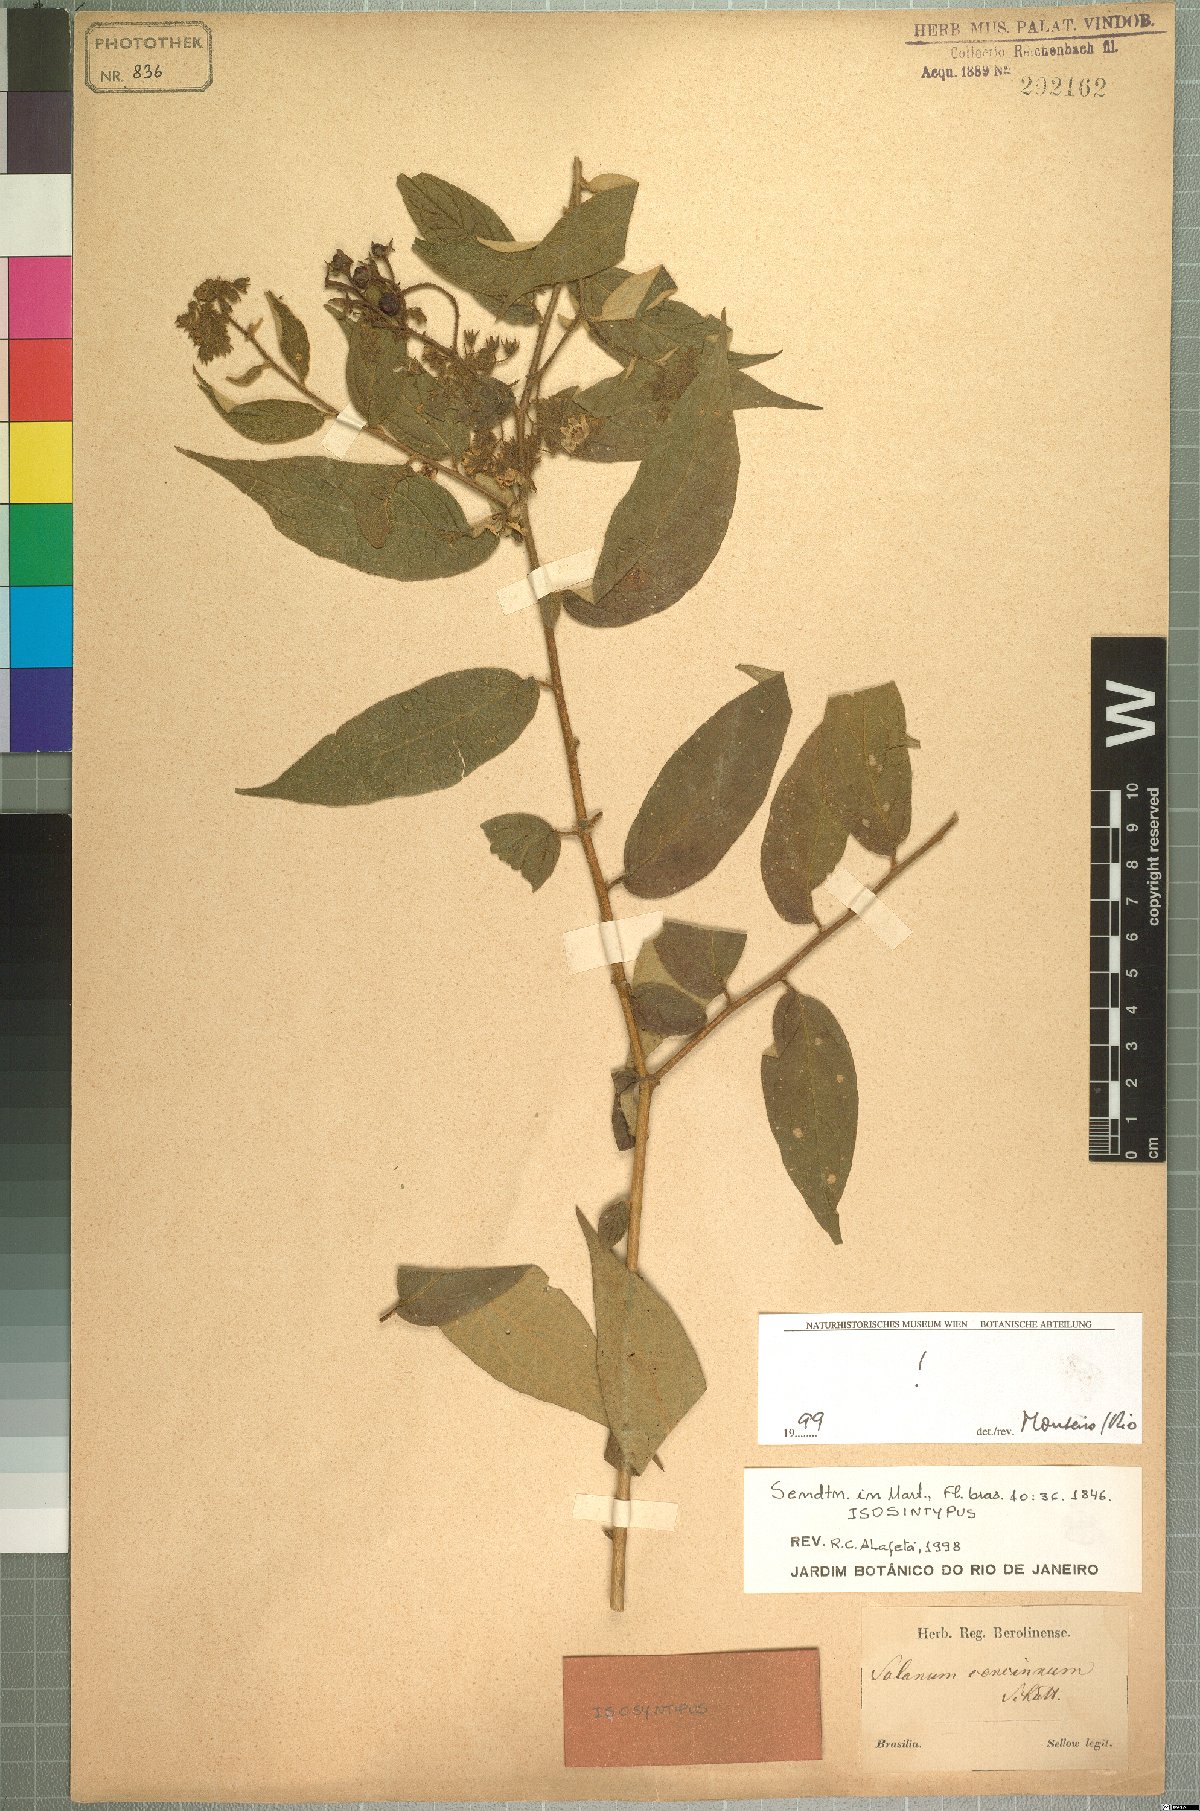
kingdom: Plantae
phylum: Tracheophyta
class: Magnoliopsida
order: Solanales
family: Solanaceae
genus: Solanum
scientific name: Solanum concinnum
